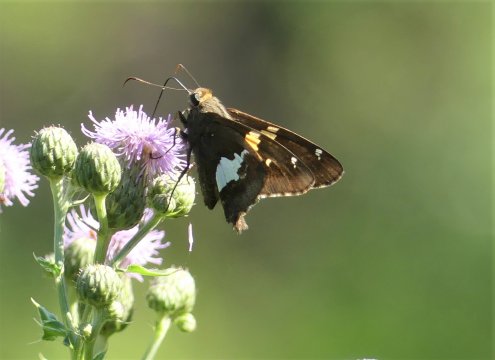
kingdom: Animalia
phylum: Arthropoda
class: Insecta
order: Lepidoptera
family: Hesperiidae
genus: Epargyreus
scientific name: Epargyreus clarus
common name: Silver-spotted Skipper
